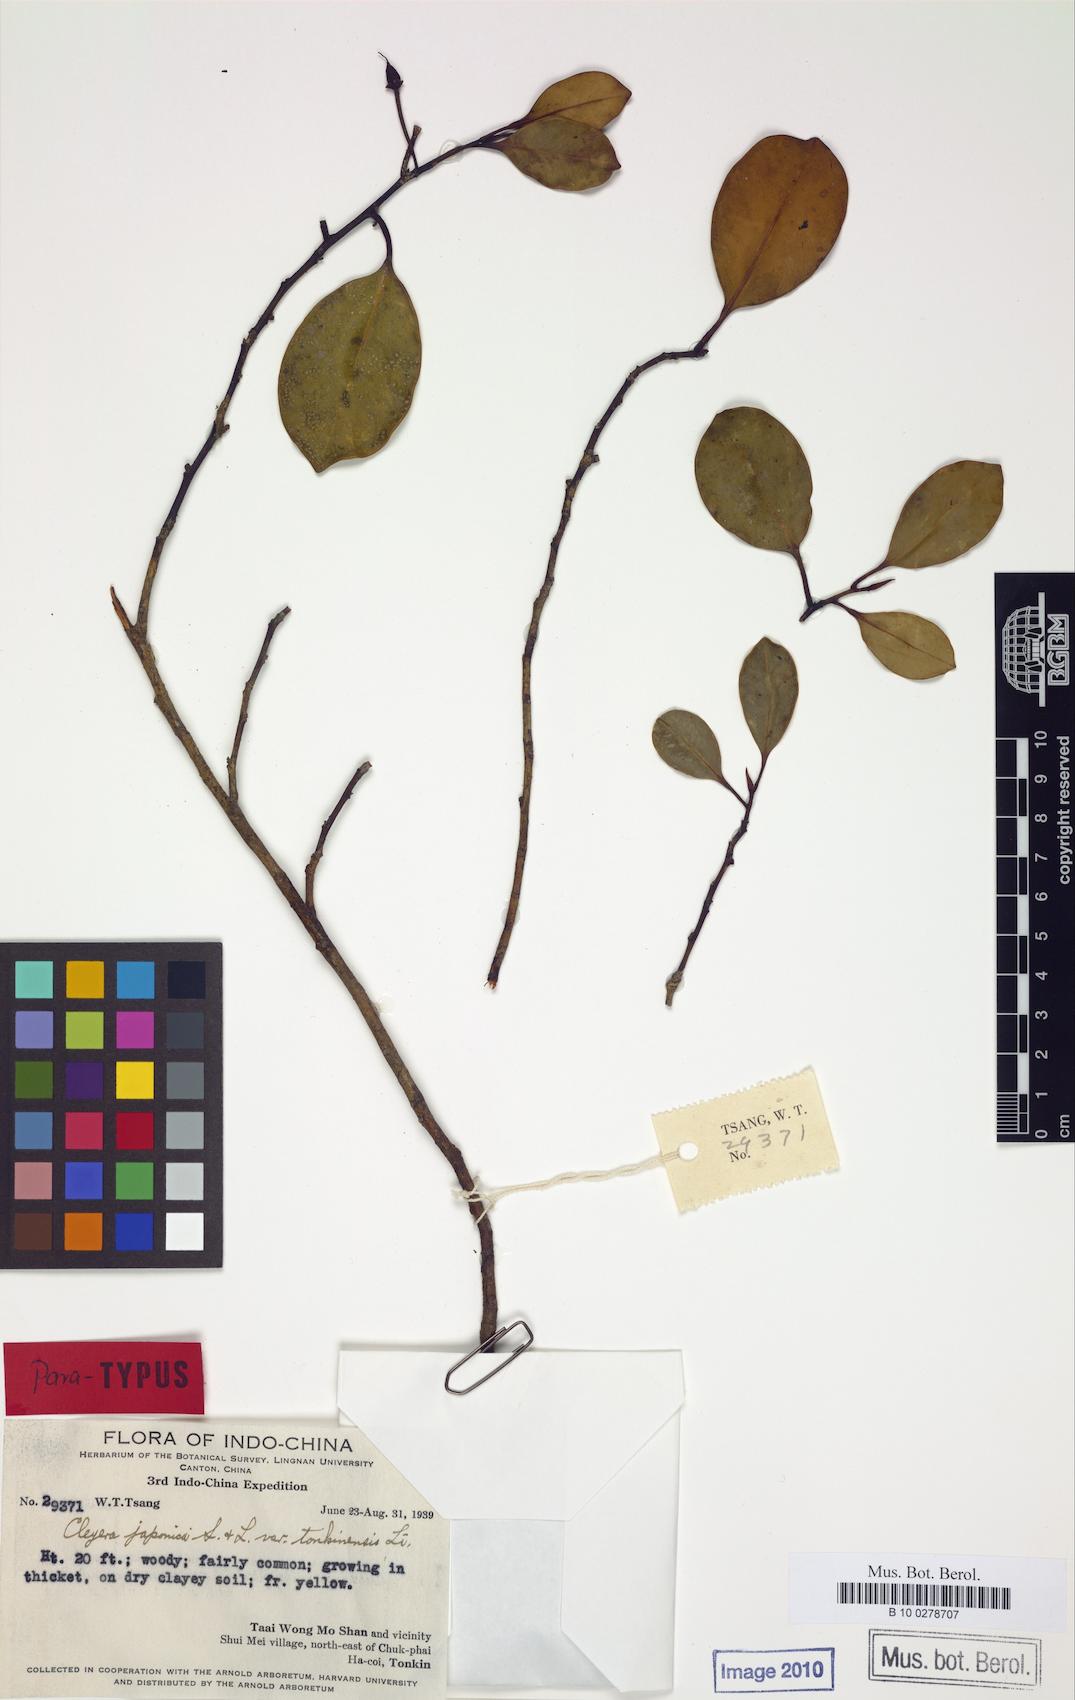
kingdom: Plantae
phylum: Tracheophyta
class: Magnoliopsida
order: Ericales
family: Pentaphylacaceae
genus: Cleyera
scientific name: Cleyera japonica
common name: Sakaki
